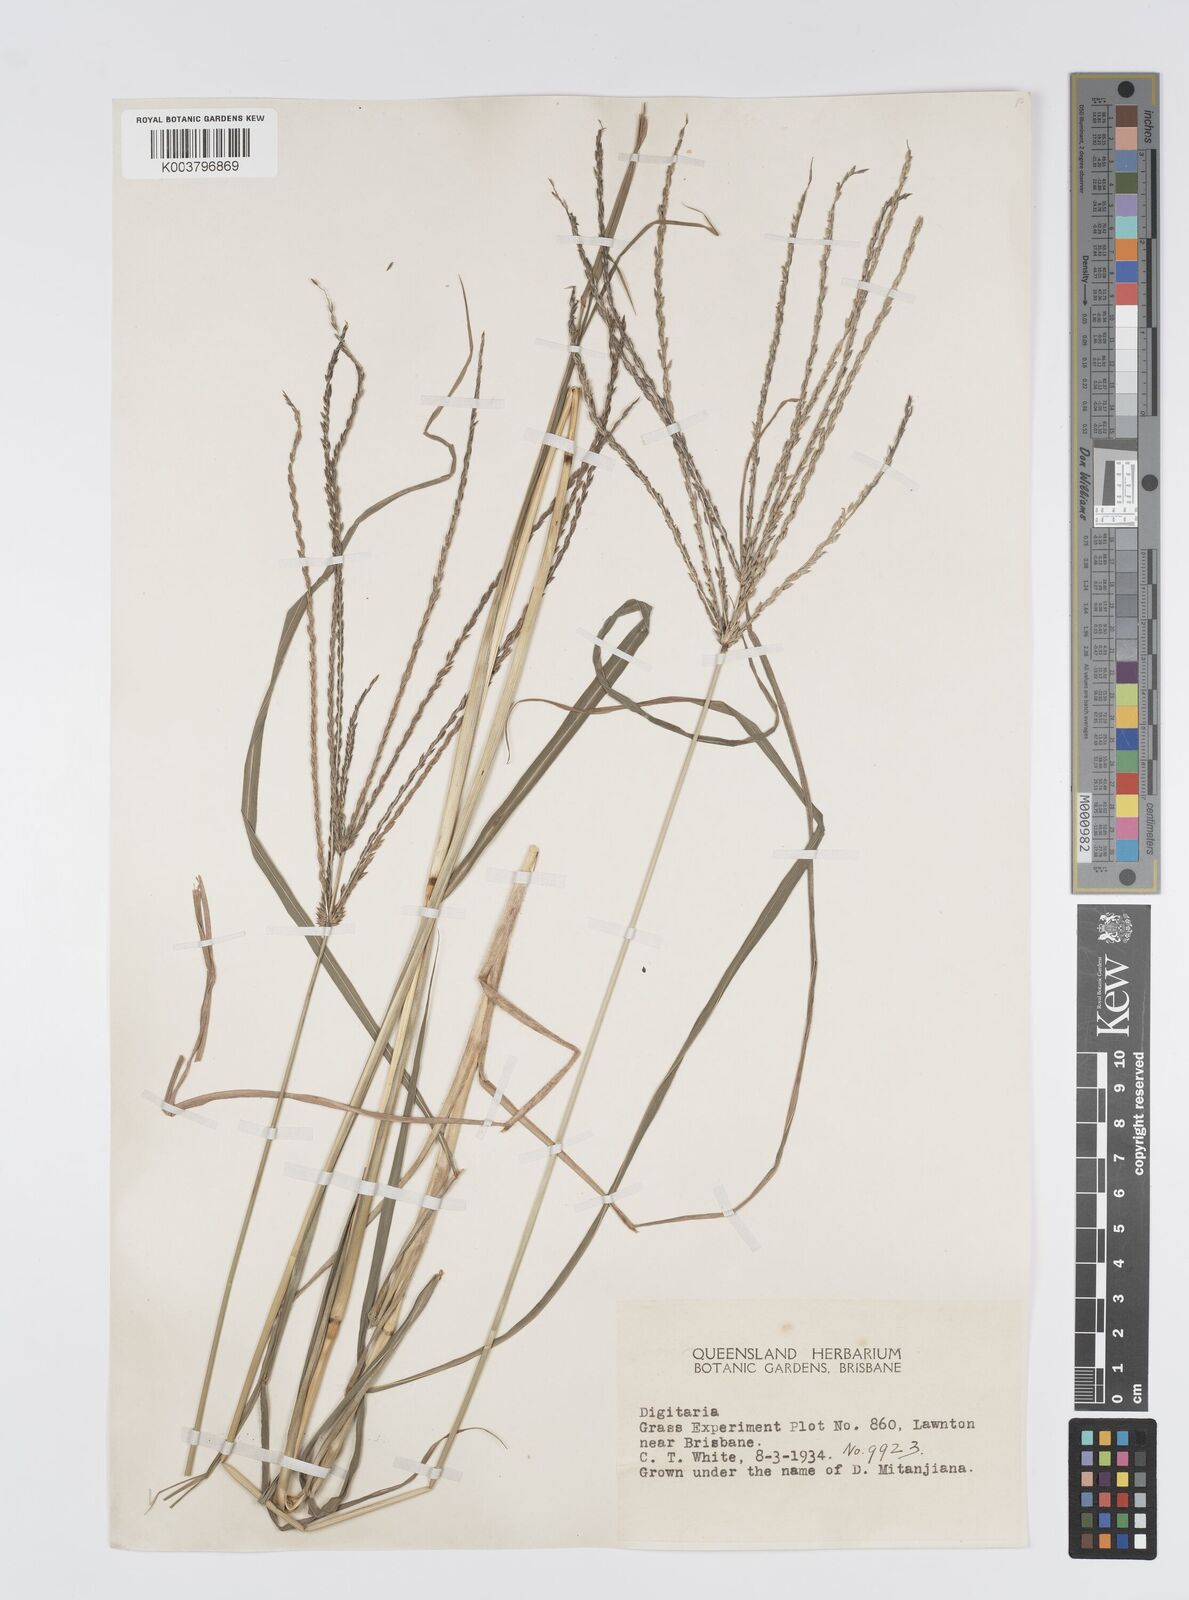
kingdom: Plantae
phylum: Tracheophyta
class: Liliopsida
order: Poales
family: Poaceae
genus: Digitaria
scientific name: Digitaria eriantha
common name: Digitgrass
